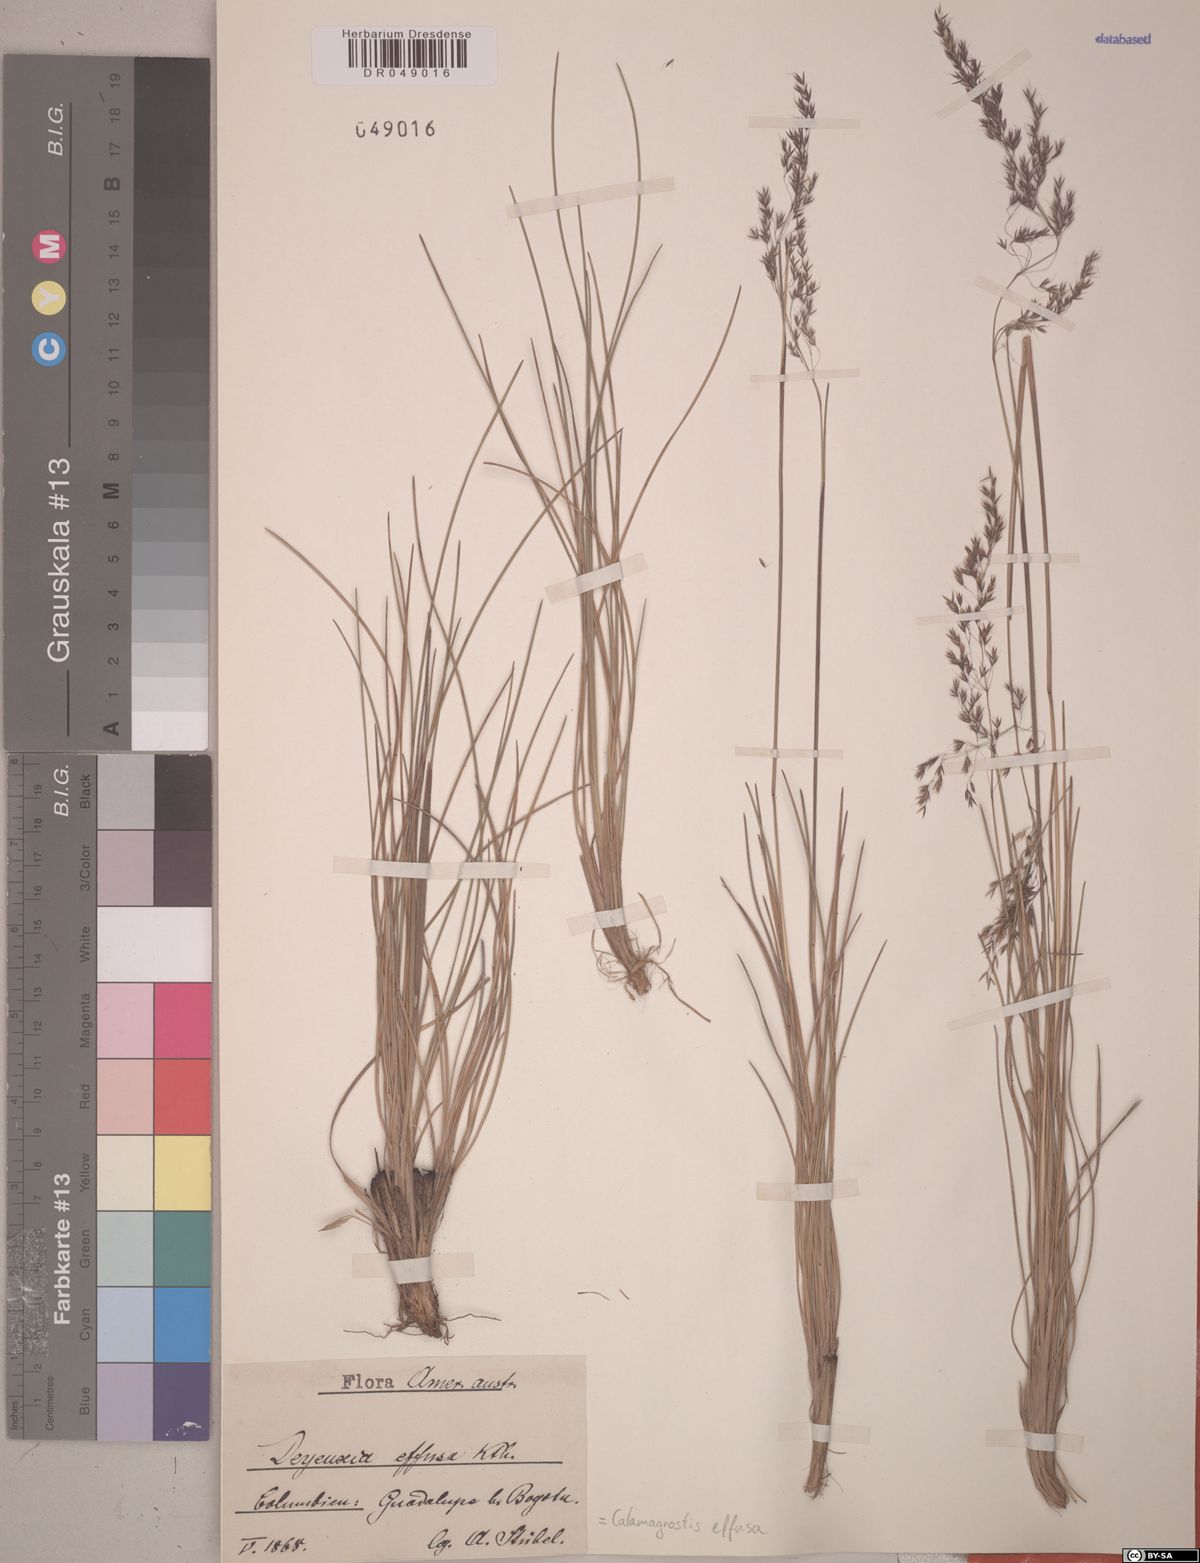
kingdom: Plantae
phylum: Tracheophyta
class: Liliopsida
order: Poales
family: Poaceae
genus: Paramochloa
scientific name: Paramochloa effusa
